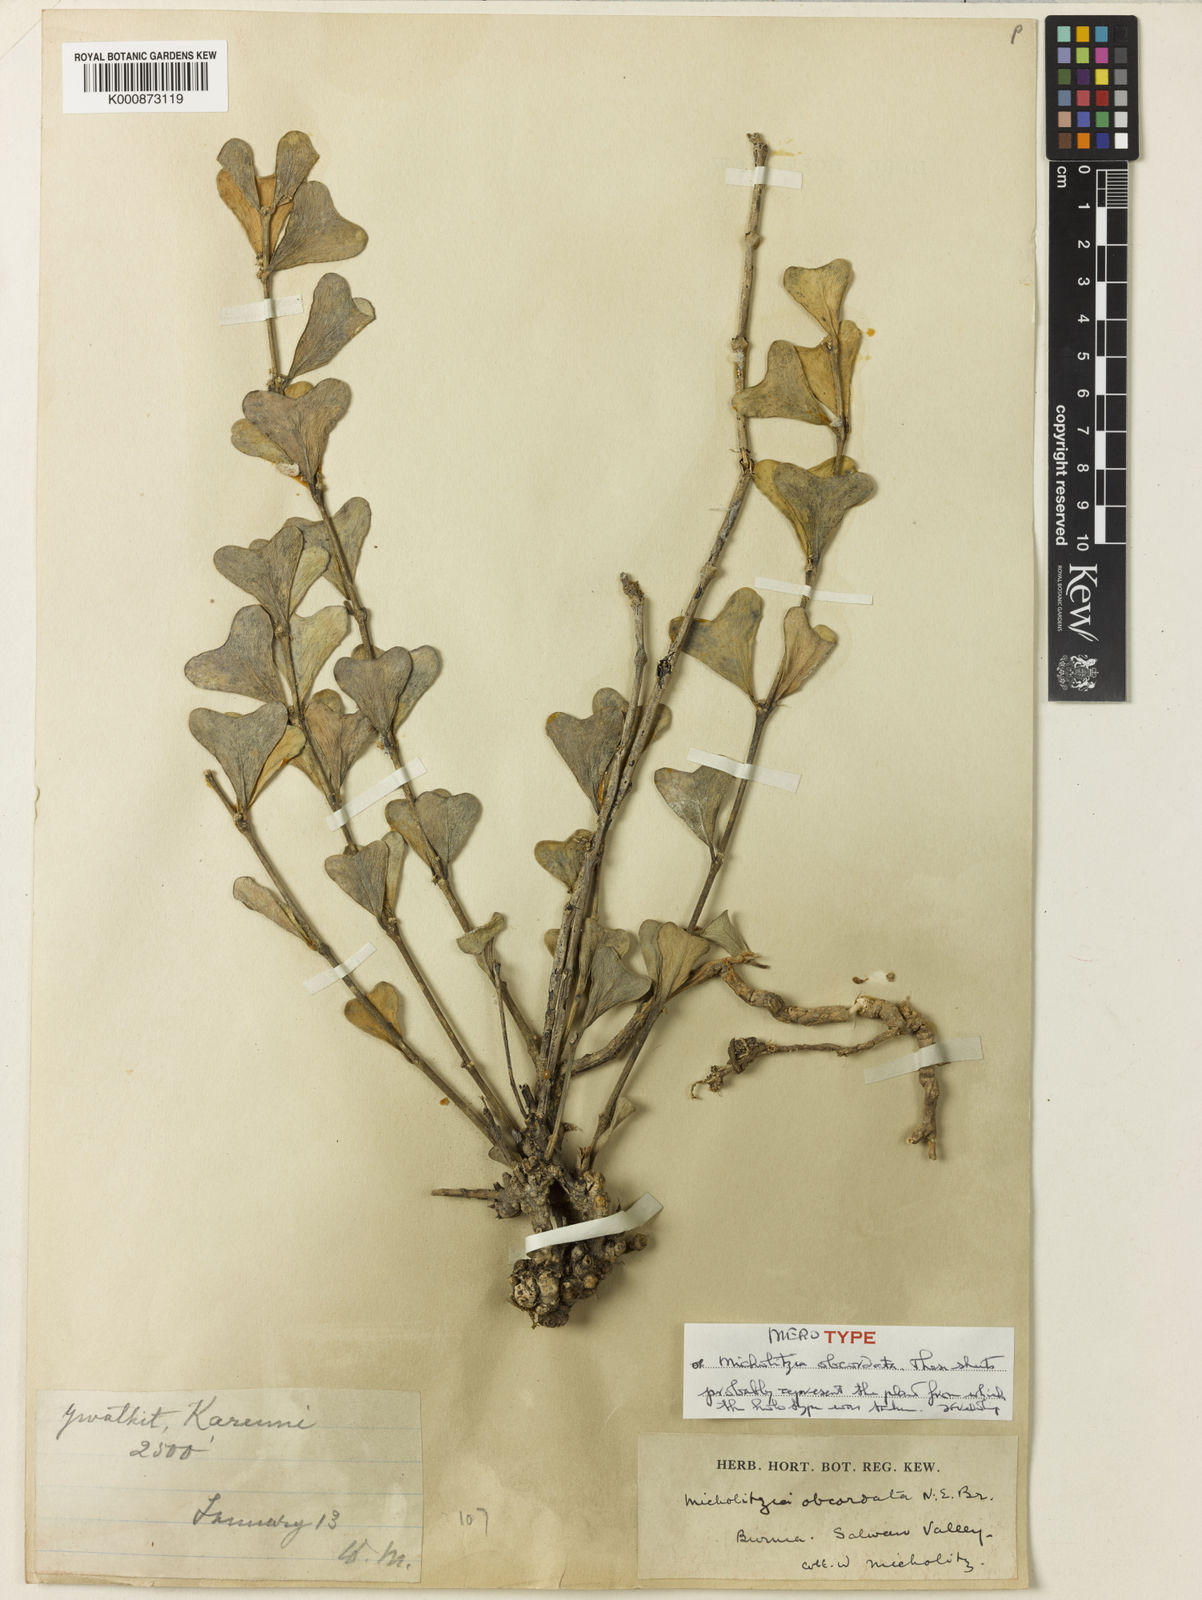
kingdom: Plantae
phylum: Tracheophyta
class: Magnoliopsida
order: Gentianales
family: Apocynaceae
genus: Hoya
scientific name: Hoya manipurensis
